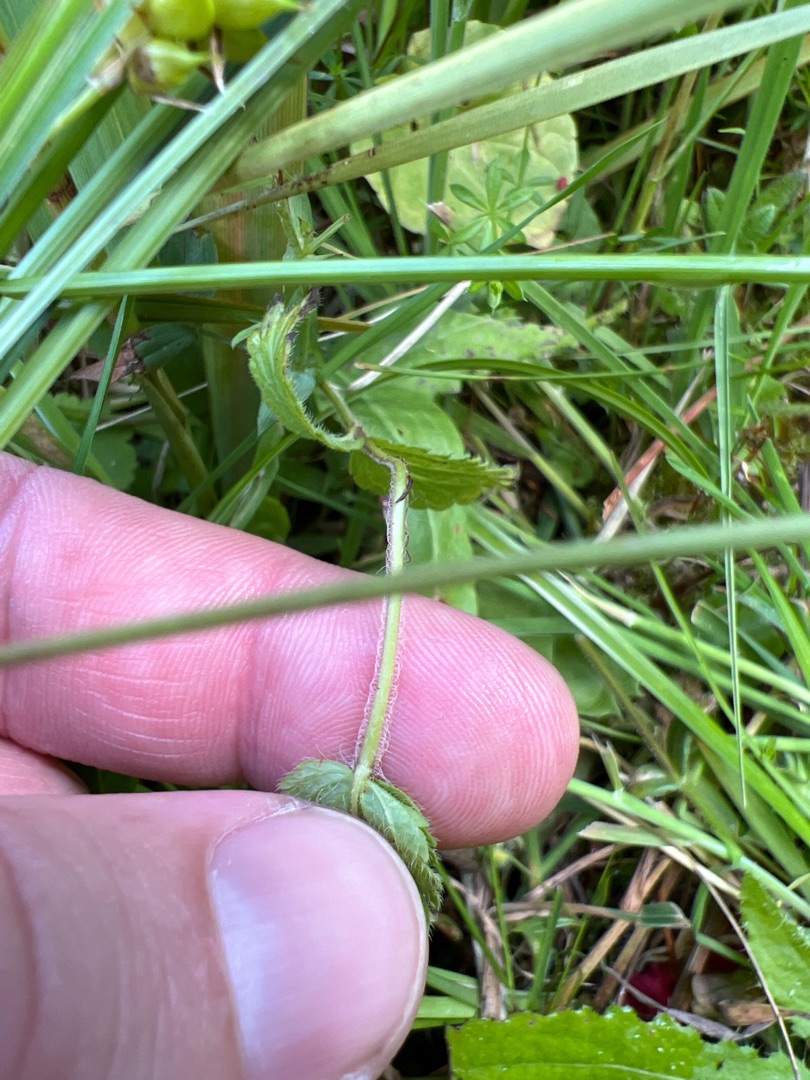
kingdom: Plantae
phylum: Tracheophyta
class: Magnoliopsida
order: Lamiales
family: Plantaginaceae
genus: Veronica
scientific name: Veronica chamaedrys
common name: Tveskægget ærenpris
